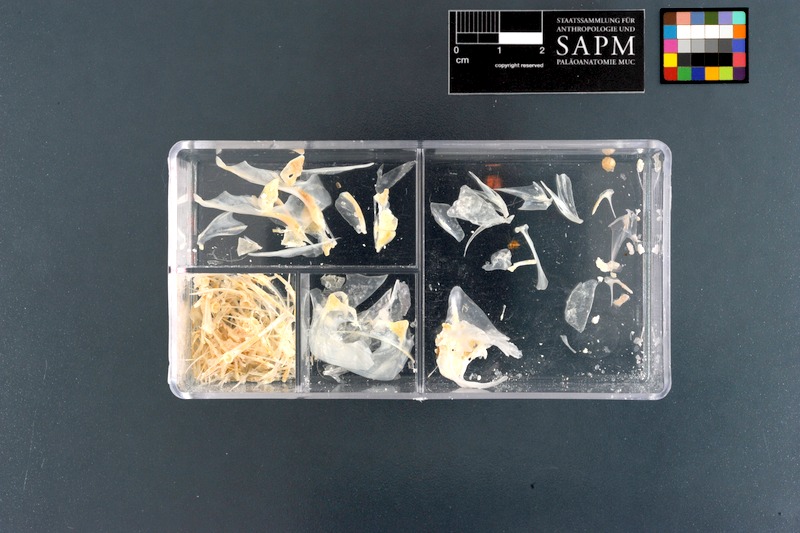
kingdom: Animalia
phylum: Chordata
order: Perciformes
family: Pempheridae
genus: Pempheris
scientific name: Pempheris vanicolensis
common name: Vanikoro sweeper
